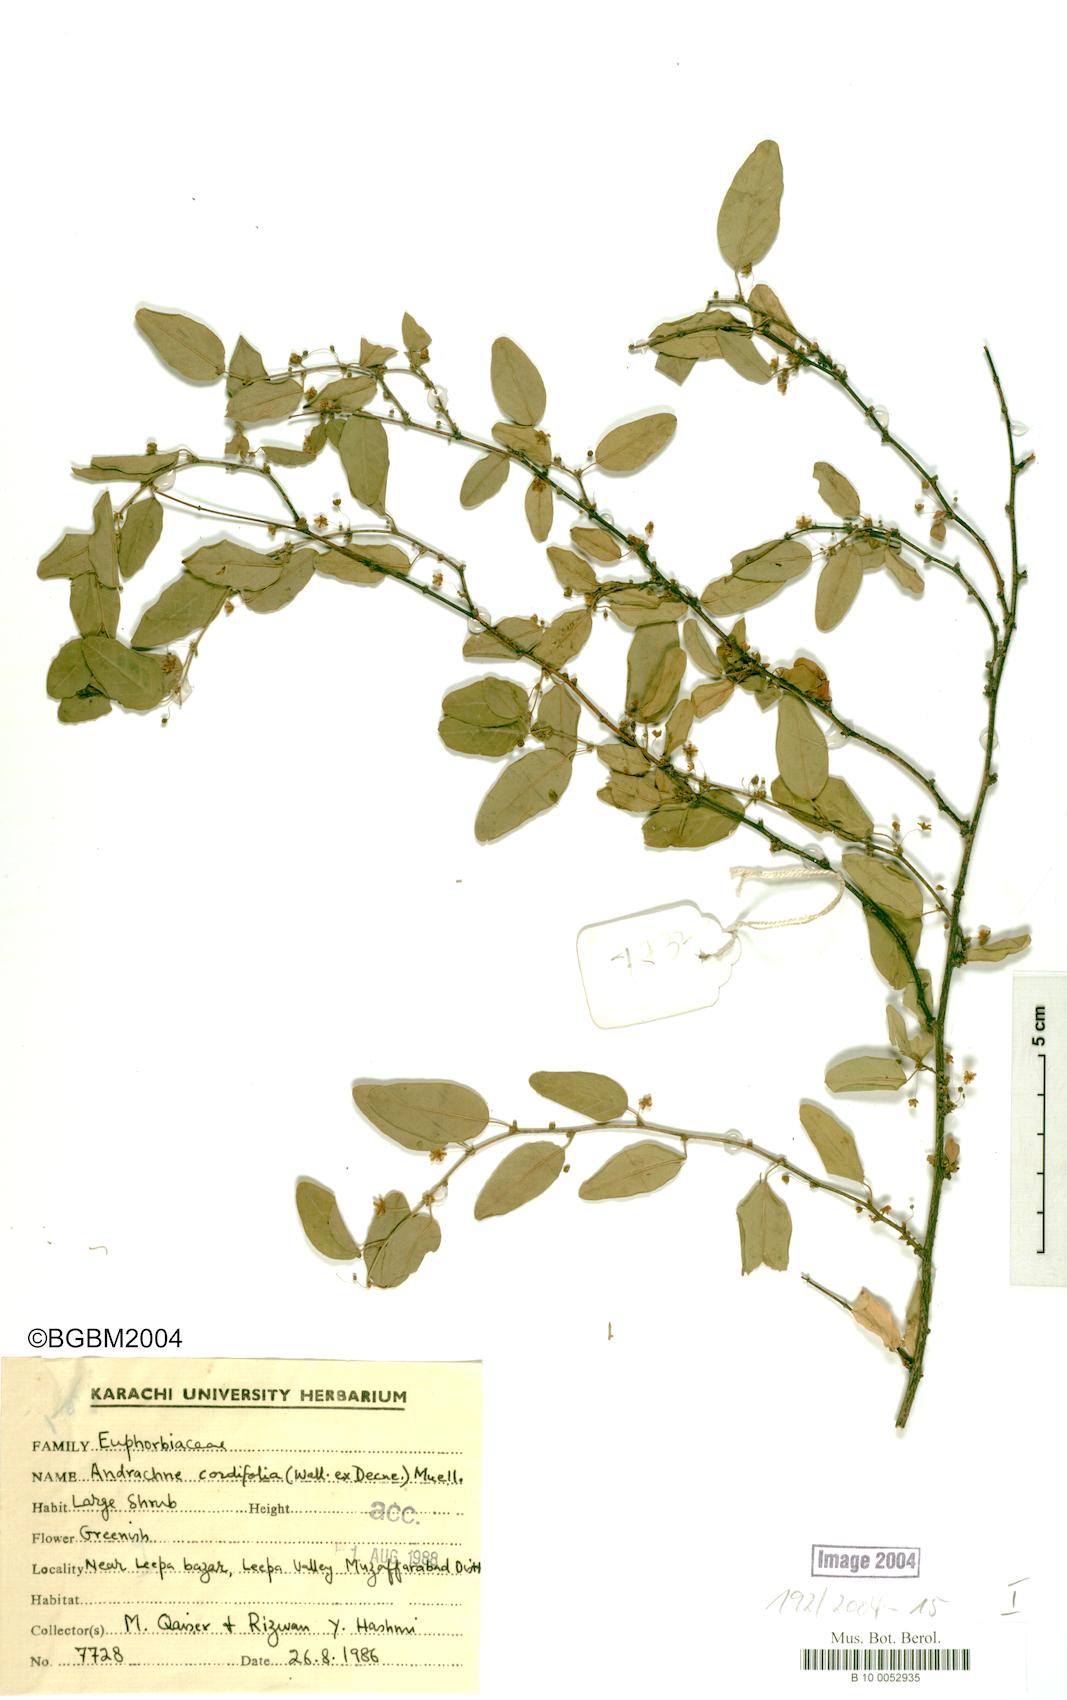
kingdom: Plantae
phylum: Tracheophyta
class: Magnoliopsida
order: Malpighiales
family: Phyllanthaceae
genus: Leptopus
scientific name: Leptopus cordifolius
